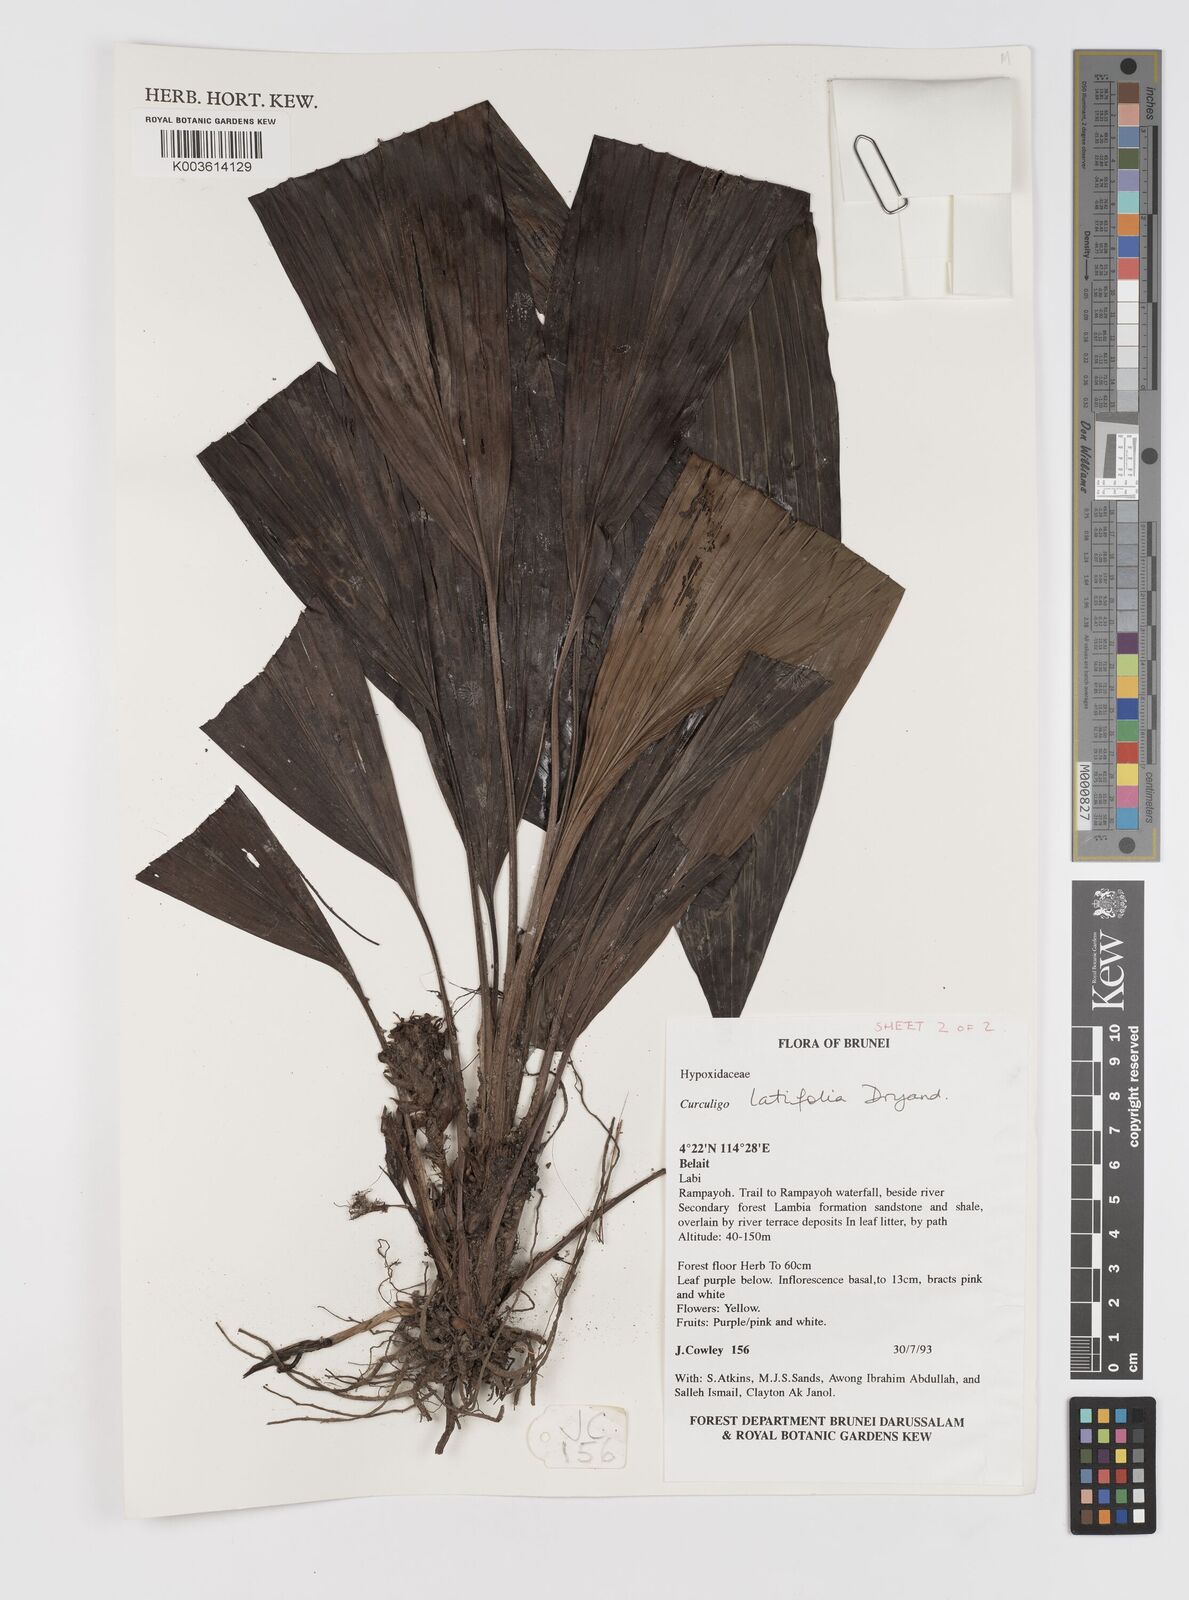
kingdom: Plantae
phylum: Tracheophyta
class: Liliopsida
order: Asparagales
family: Hypoxidaceae
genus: Curculigo
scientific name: Curculigo latifolia
